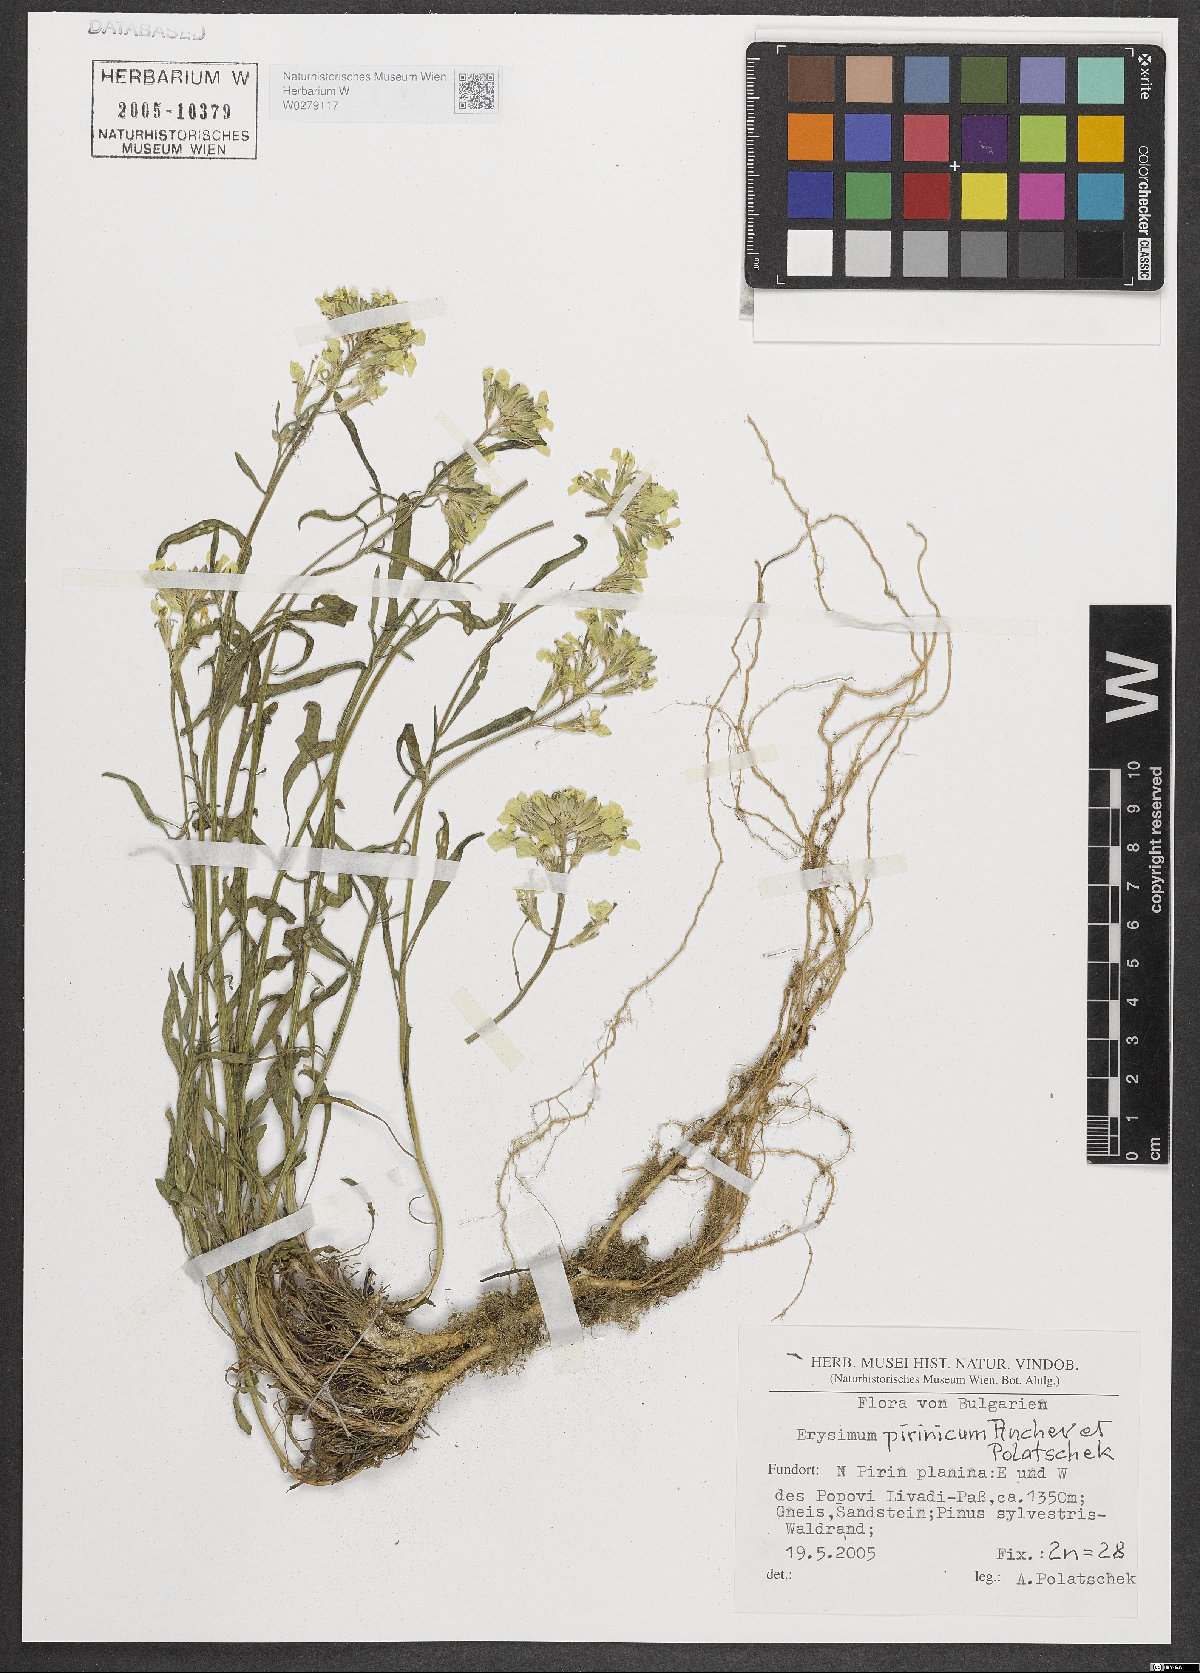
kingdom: Plantae
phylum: Tracheophyta
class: Magnoliopsida
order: Brassicales
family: Brassicaceae
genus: Erysimum
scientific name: Erysimum pirinicum
